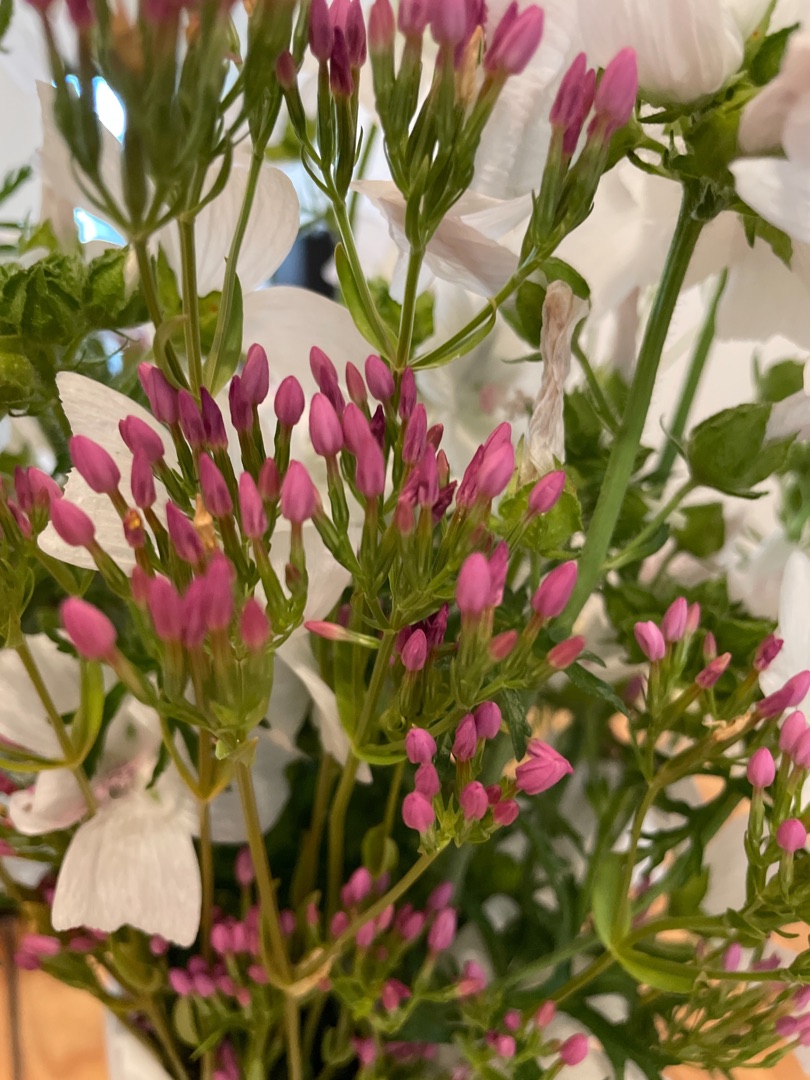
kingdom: Plantae
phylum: Tracheophyta
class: Magnoliopsida
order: Gentianales
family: Gentianaceae
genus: Centaurium
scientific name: Centaurium erythraea
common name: Mark-tusindgylden
